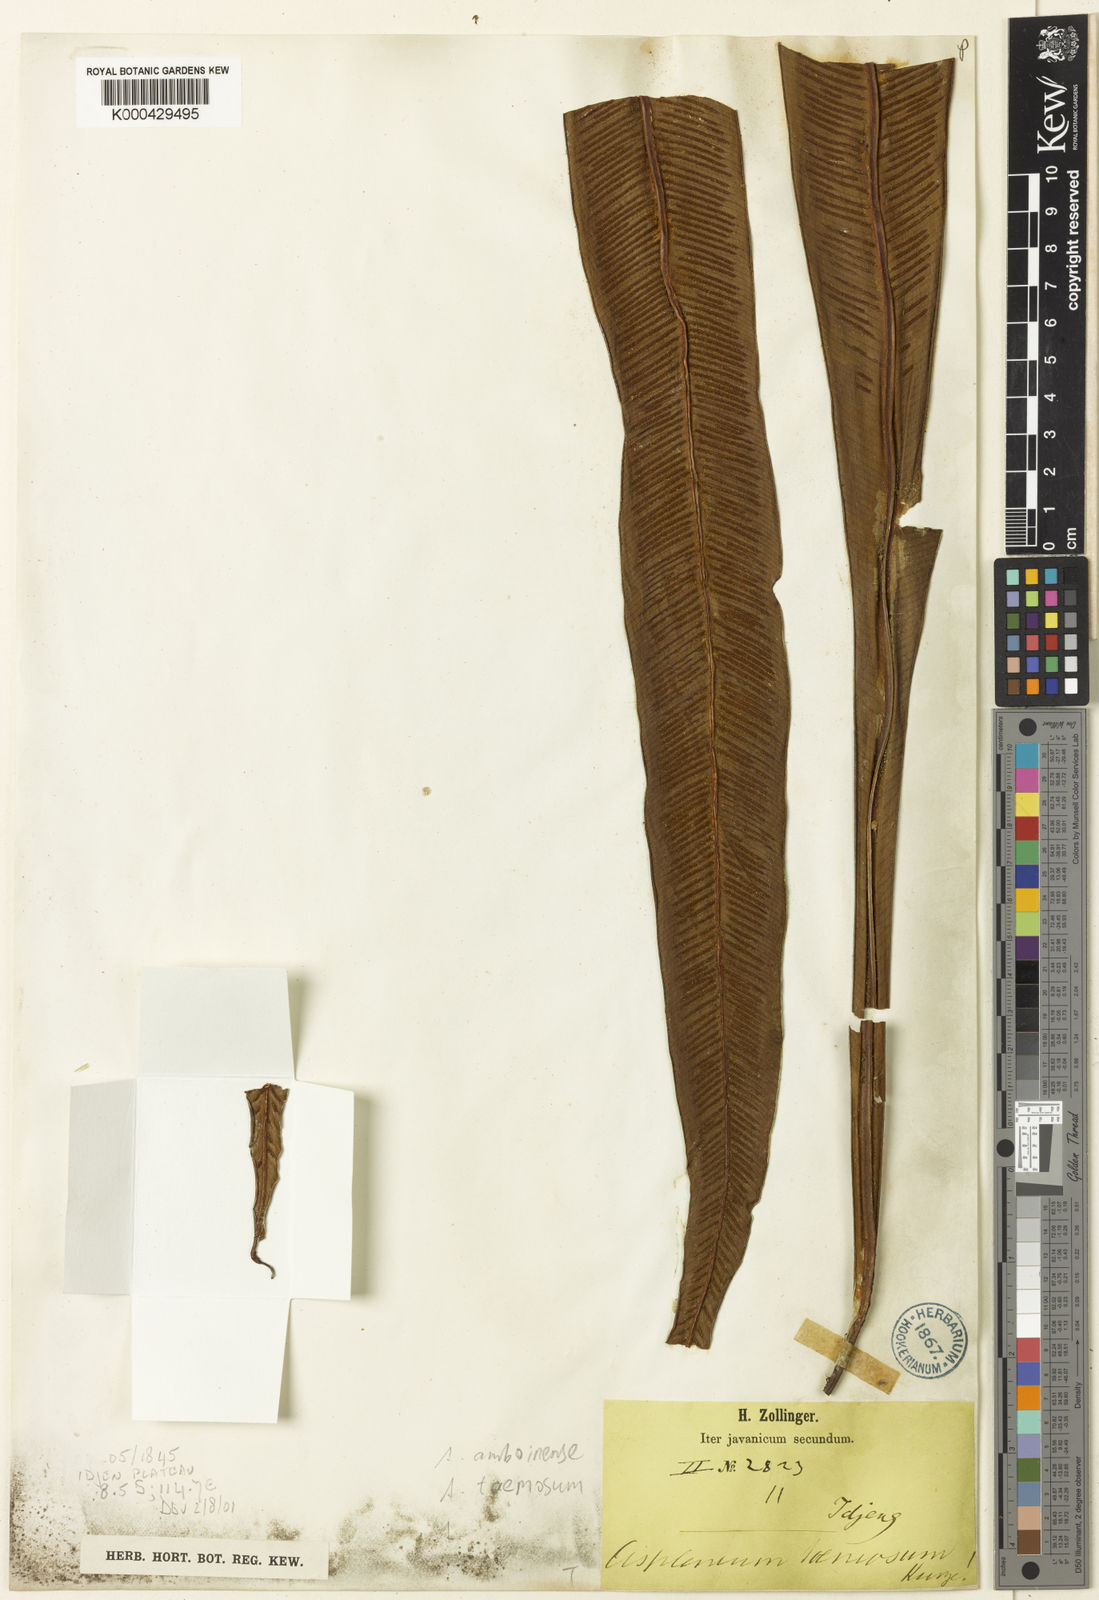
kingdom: Plantae
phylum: Tracheophyta
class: Polypodiopsida
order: Polypodiales
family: Aspleniaceae
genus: Asplenium
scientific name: Asplenium
